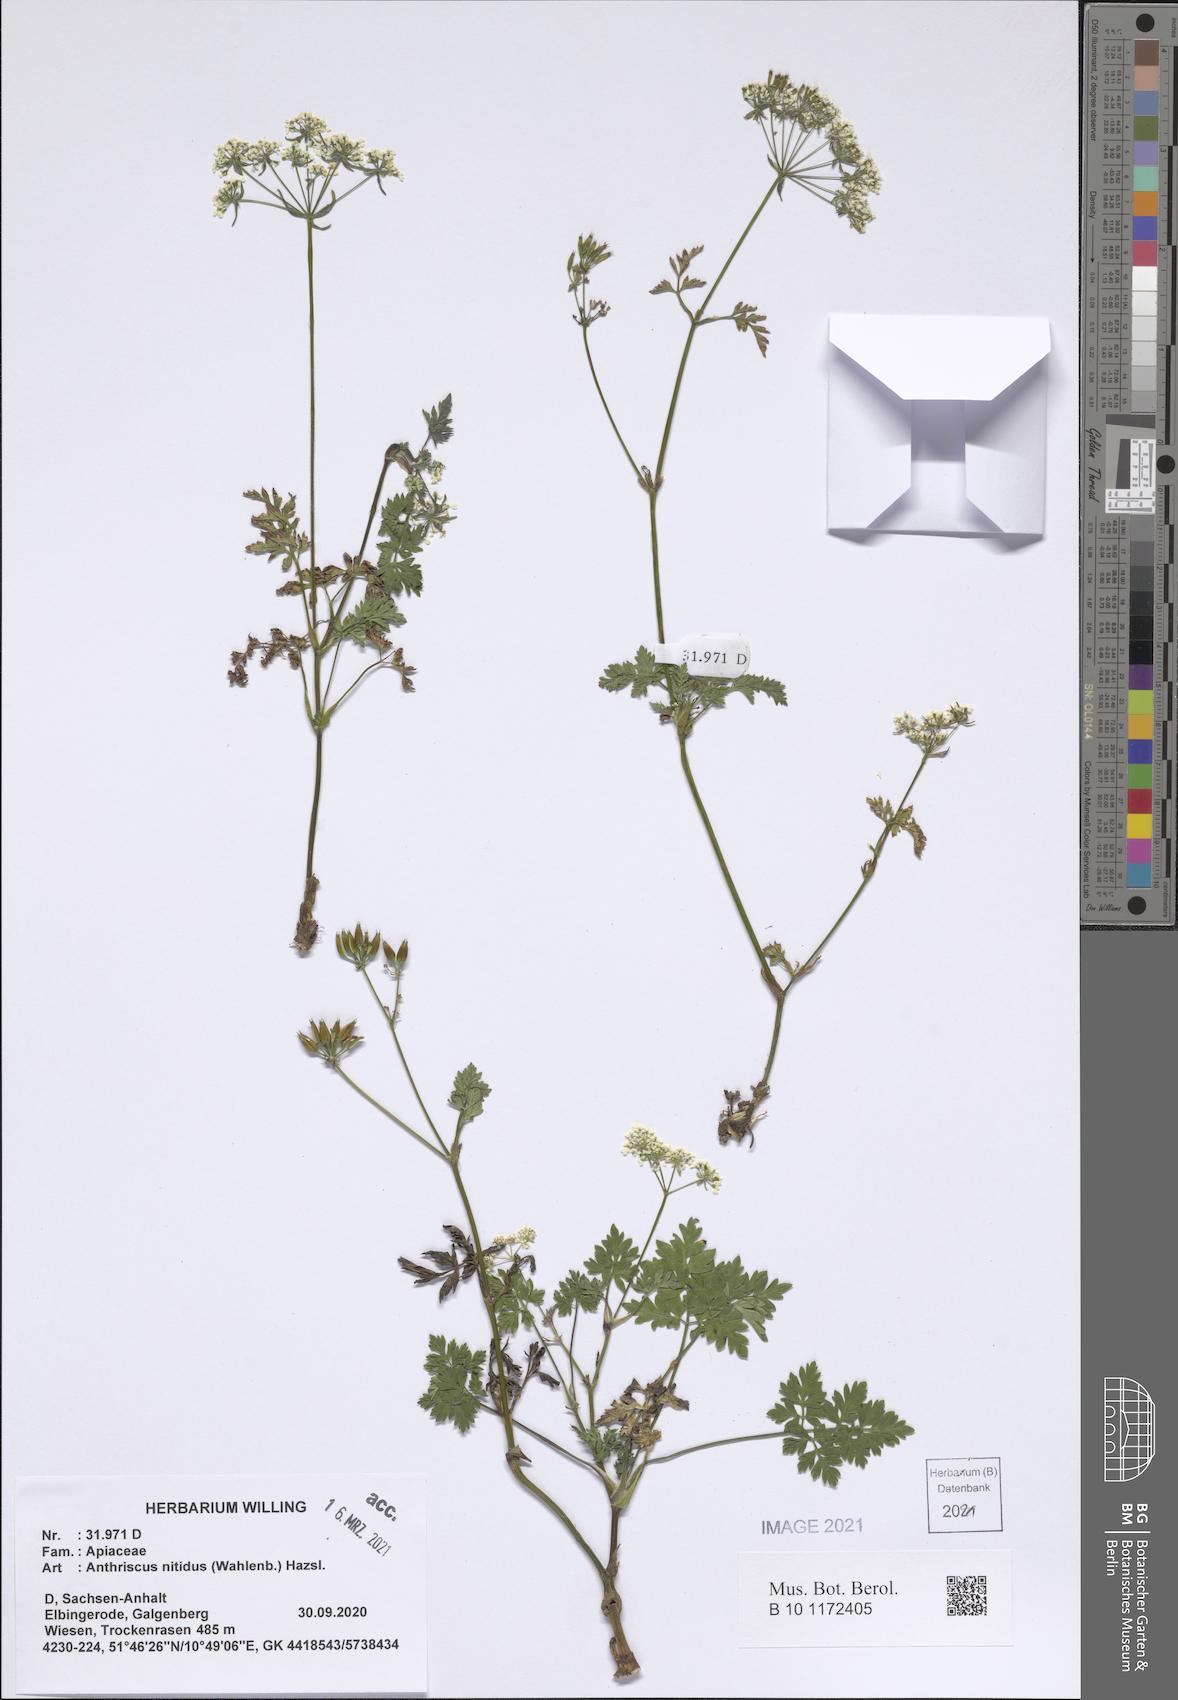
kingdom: Plantae
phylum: Tracheophyta
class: Magnoliopsida
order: Apiales
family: Apiaceae
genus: Anthriscus
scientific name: Anthriscus nitida
